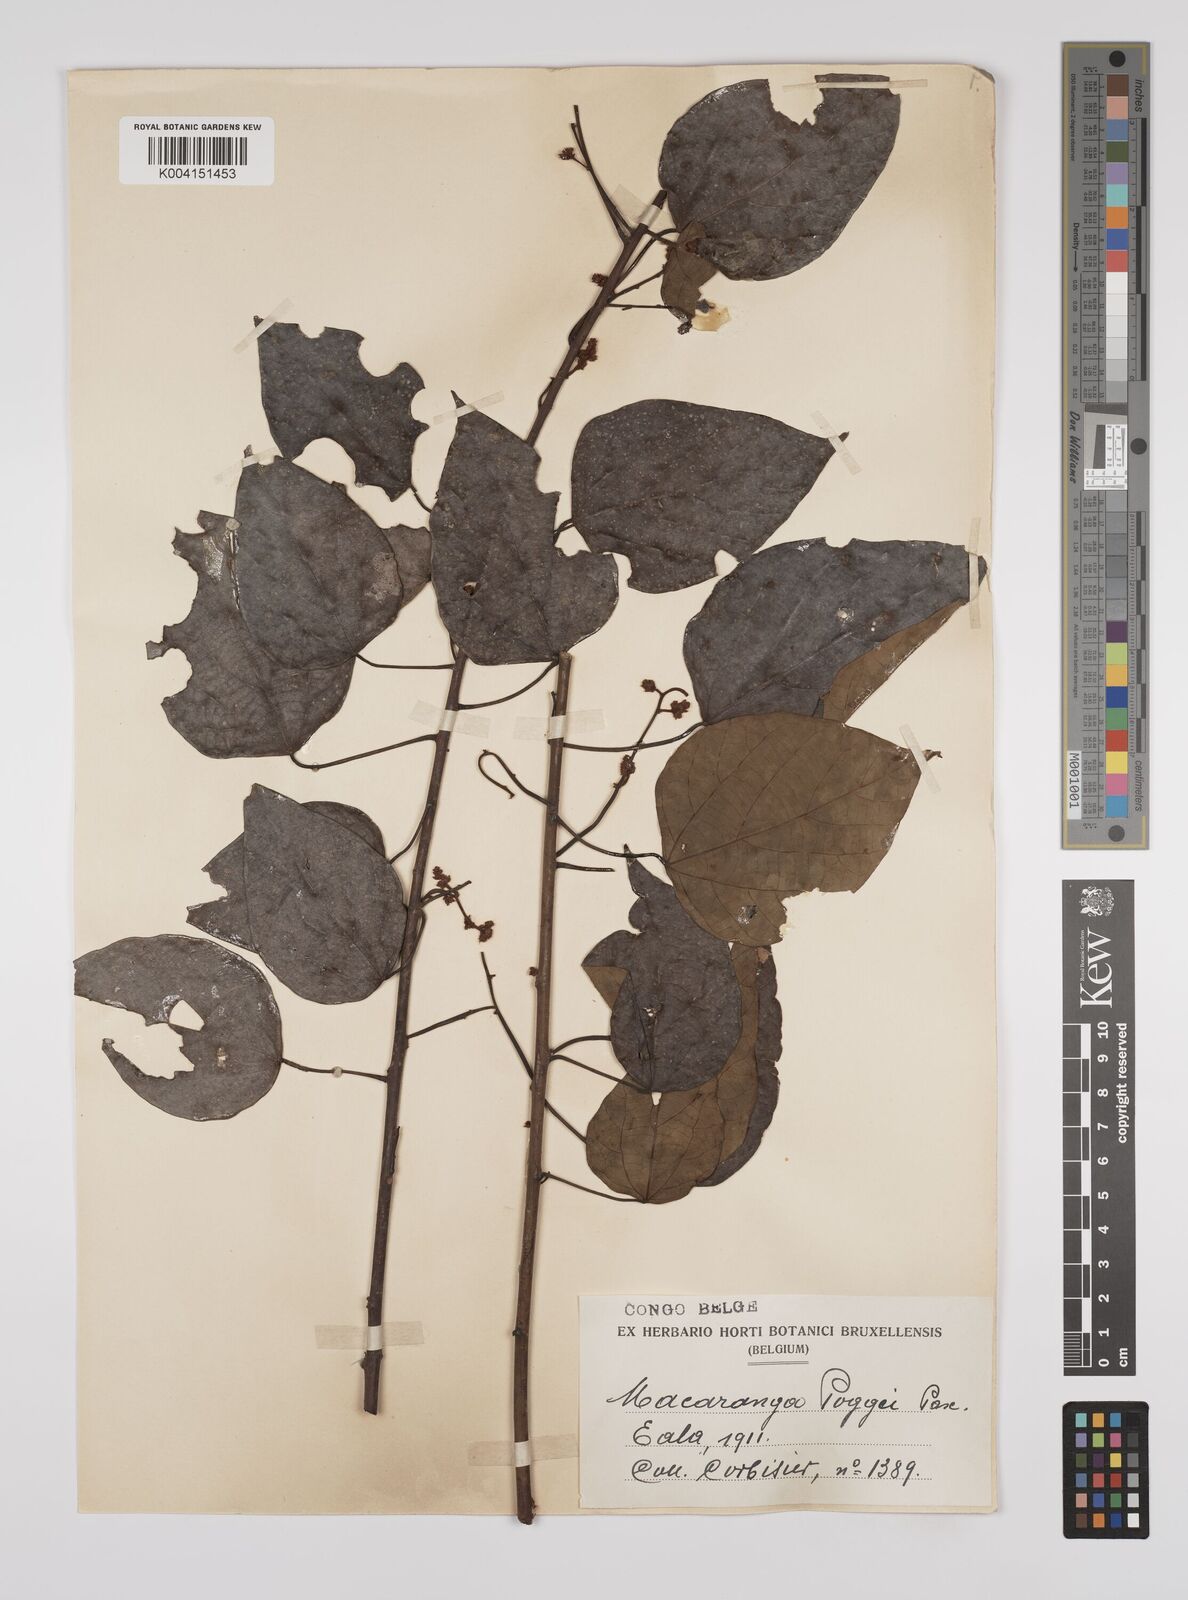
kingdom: Plantae
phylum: Tracheophyta
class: Magnoliopsida
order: Malpighiales
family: Euphorbiaceae
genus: Macaranga
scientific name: Macaranga poggei
